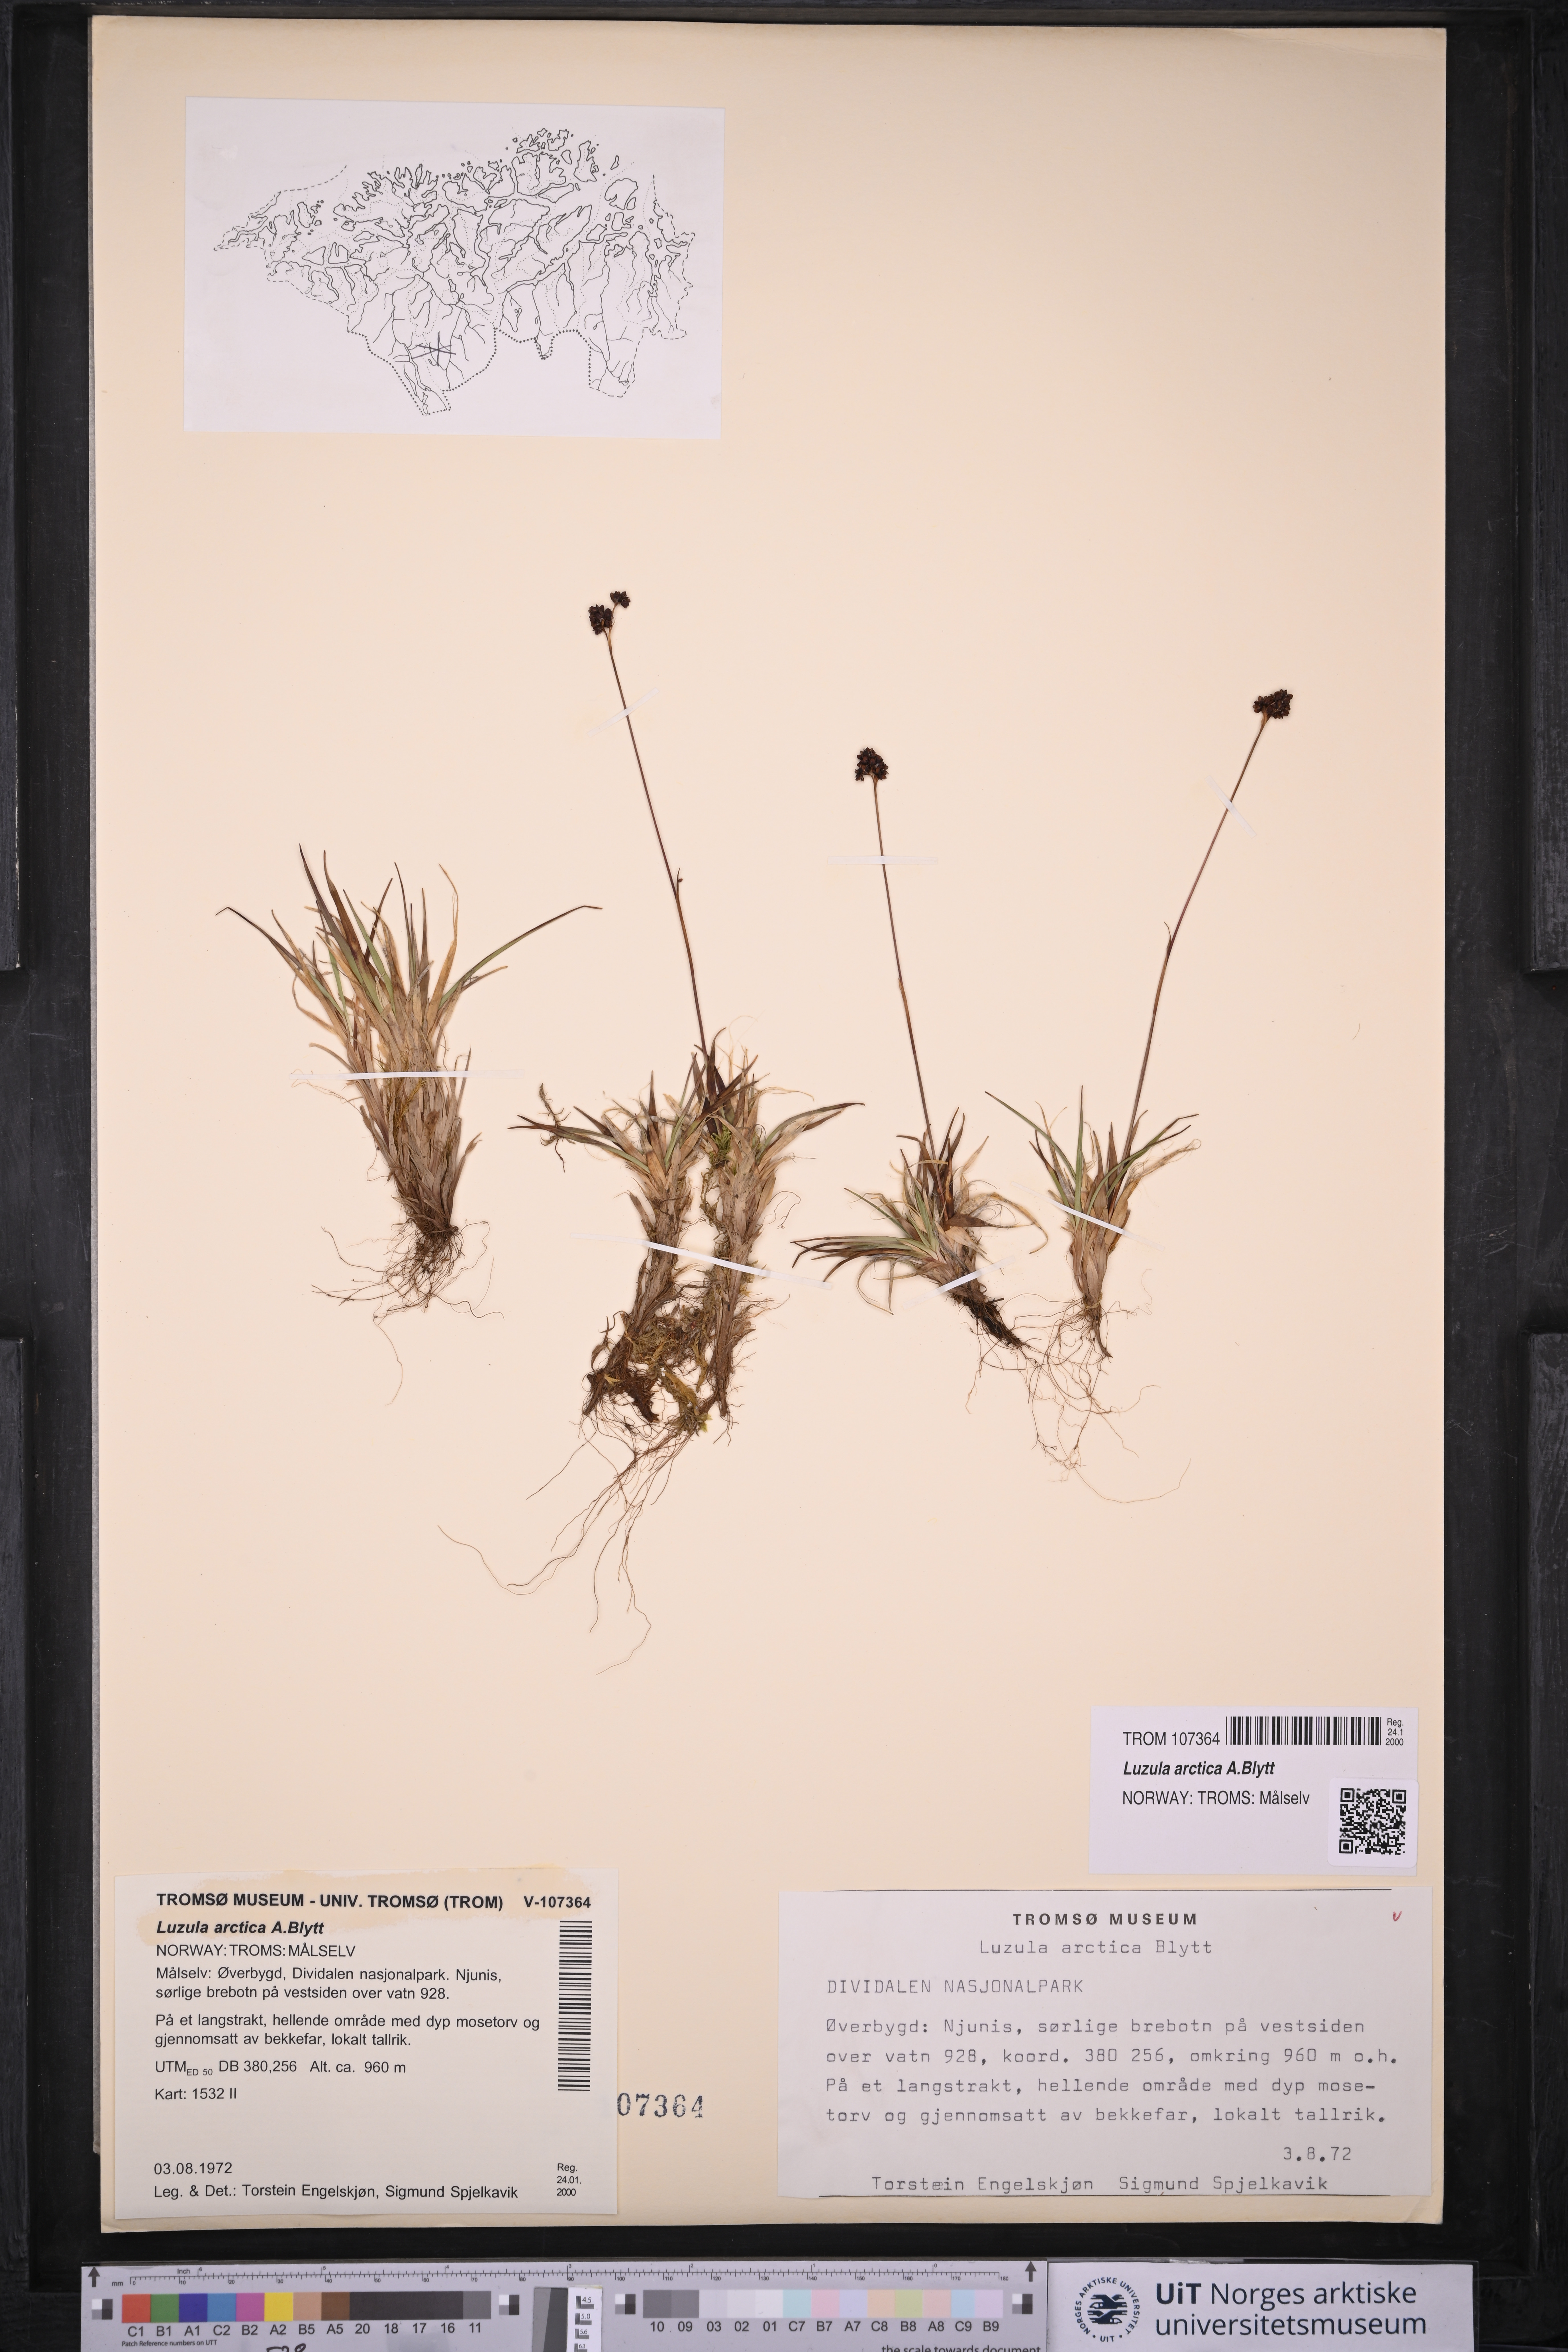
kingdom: Plantae
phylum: Tracheophyta
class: Liliopsida
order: Poales
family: Juncaceae
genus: Luzula
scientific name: Luzula nivalis
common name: Arctic woodrush
